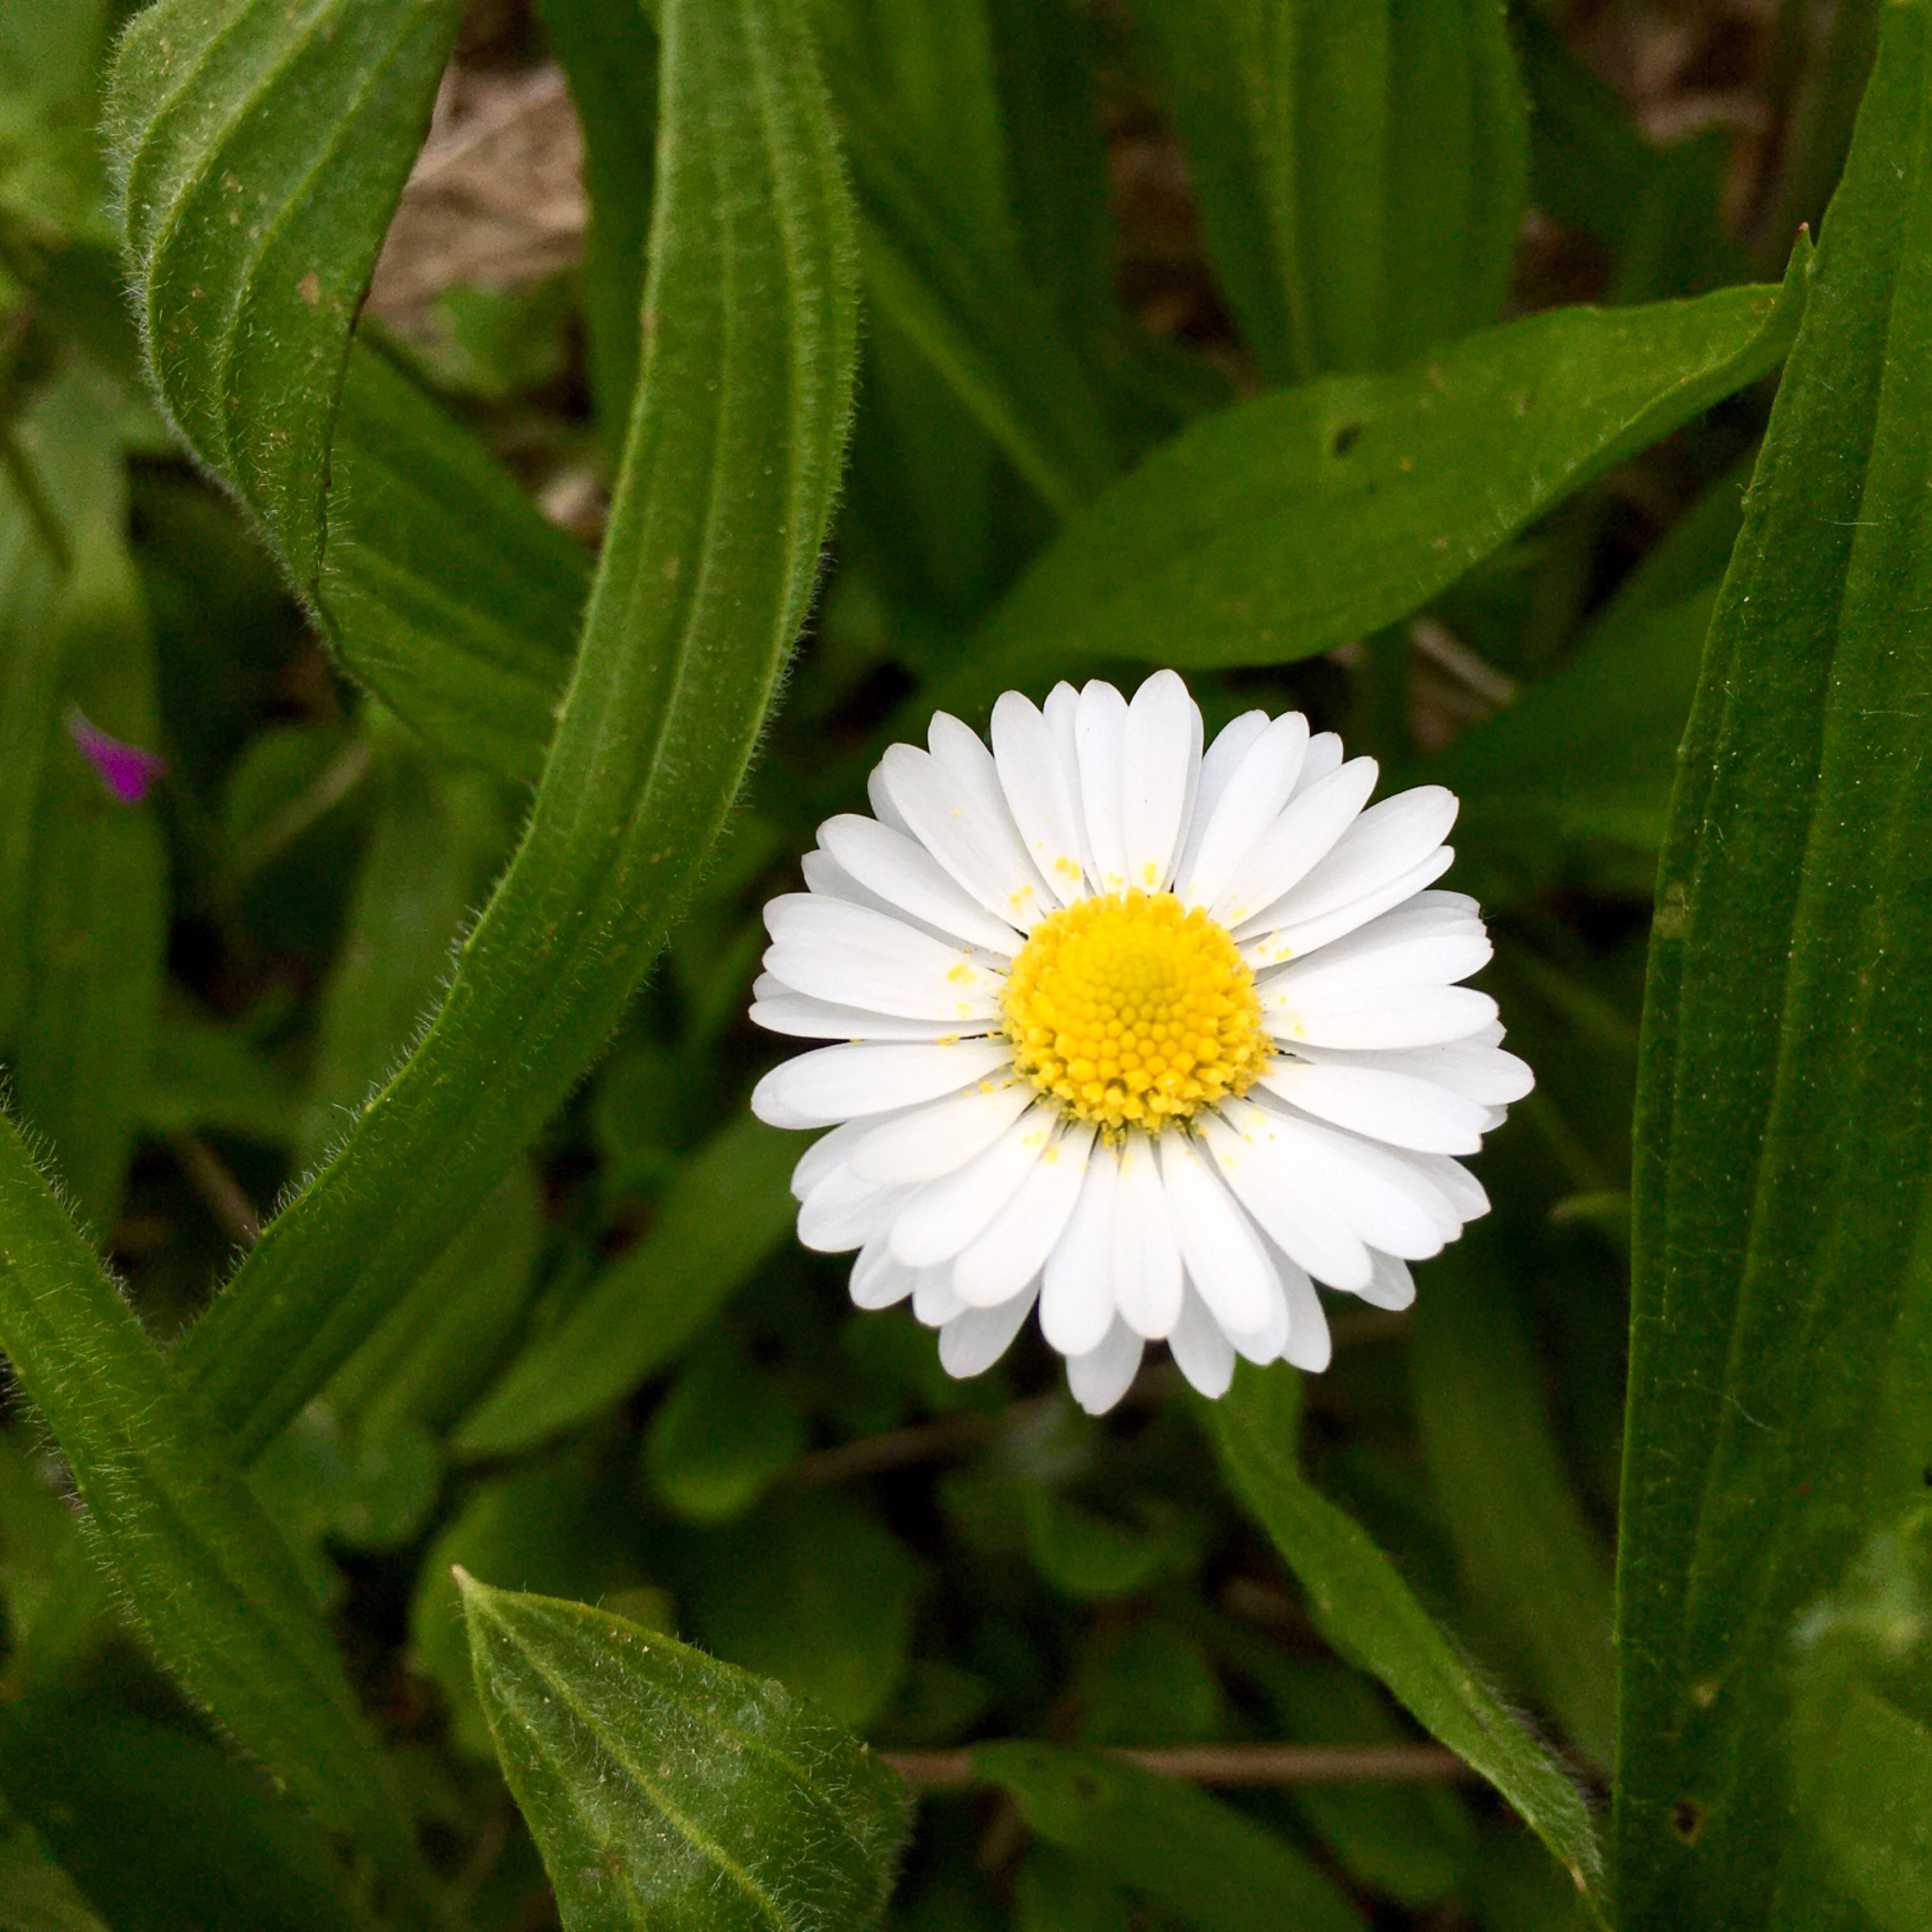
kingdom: Plantae
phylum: Tracheophyta
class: Magnoliopsida
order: Asterales
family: Asteraceae
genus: Bellis
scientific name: Bellis perennis
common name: Tusindfryd
